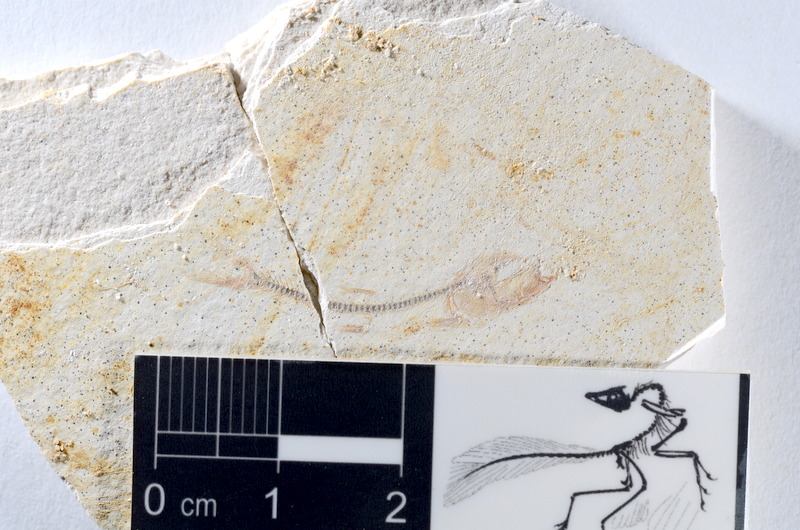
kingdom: Animalia
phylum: Chordata
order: Salmoniformes
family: Orthogonikleithridae
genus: Orthogonikleithrus
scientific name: Orthogonikleithrus hoelli
